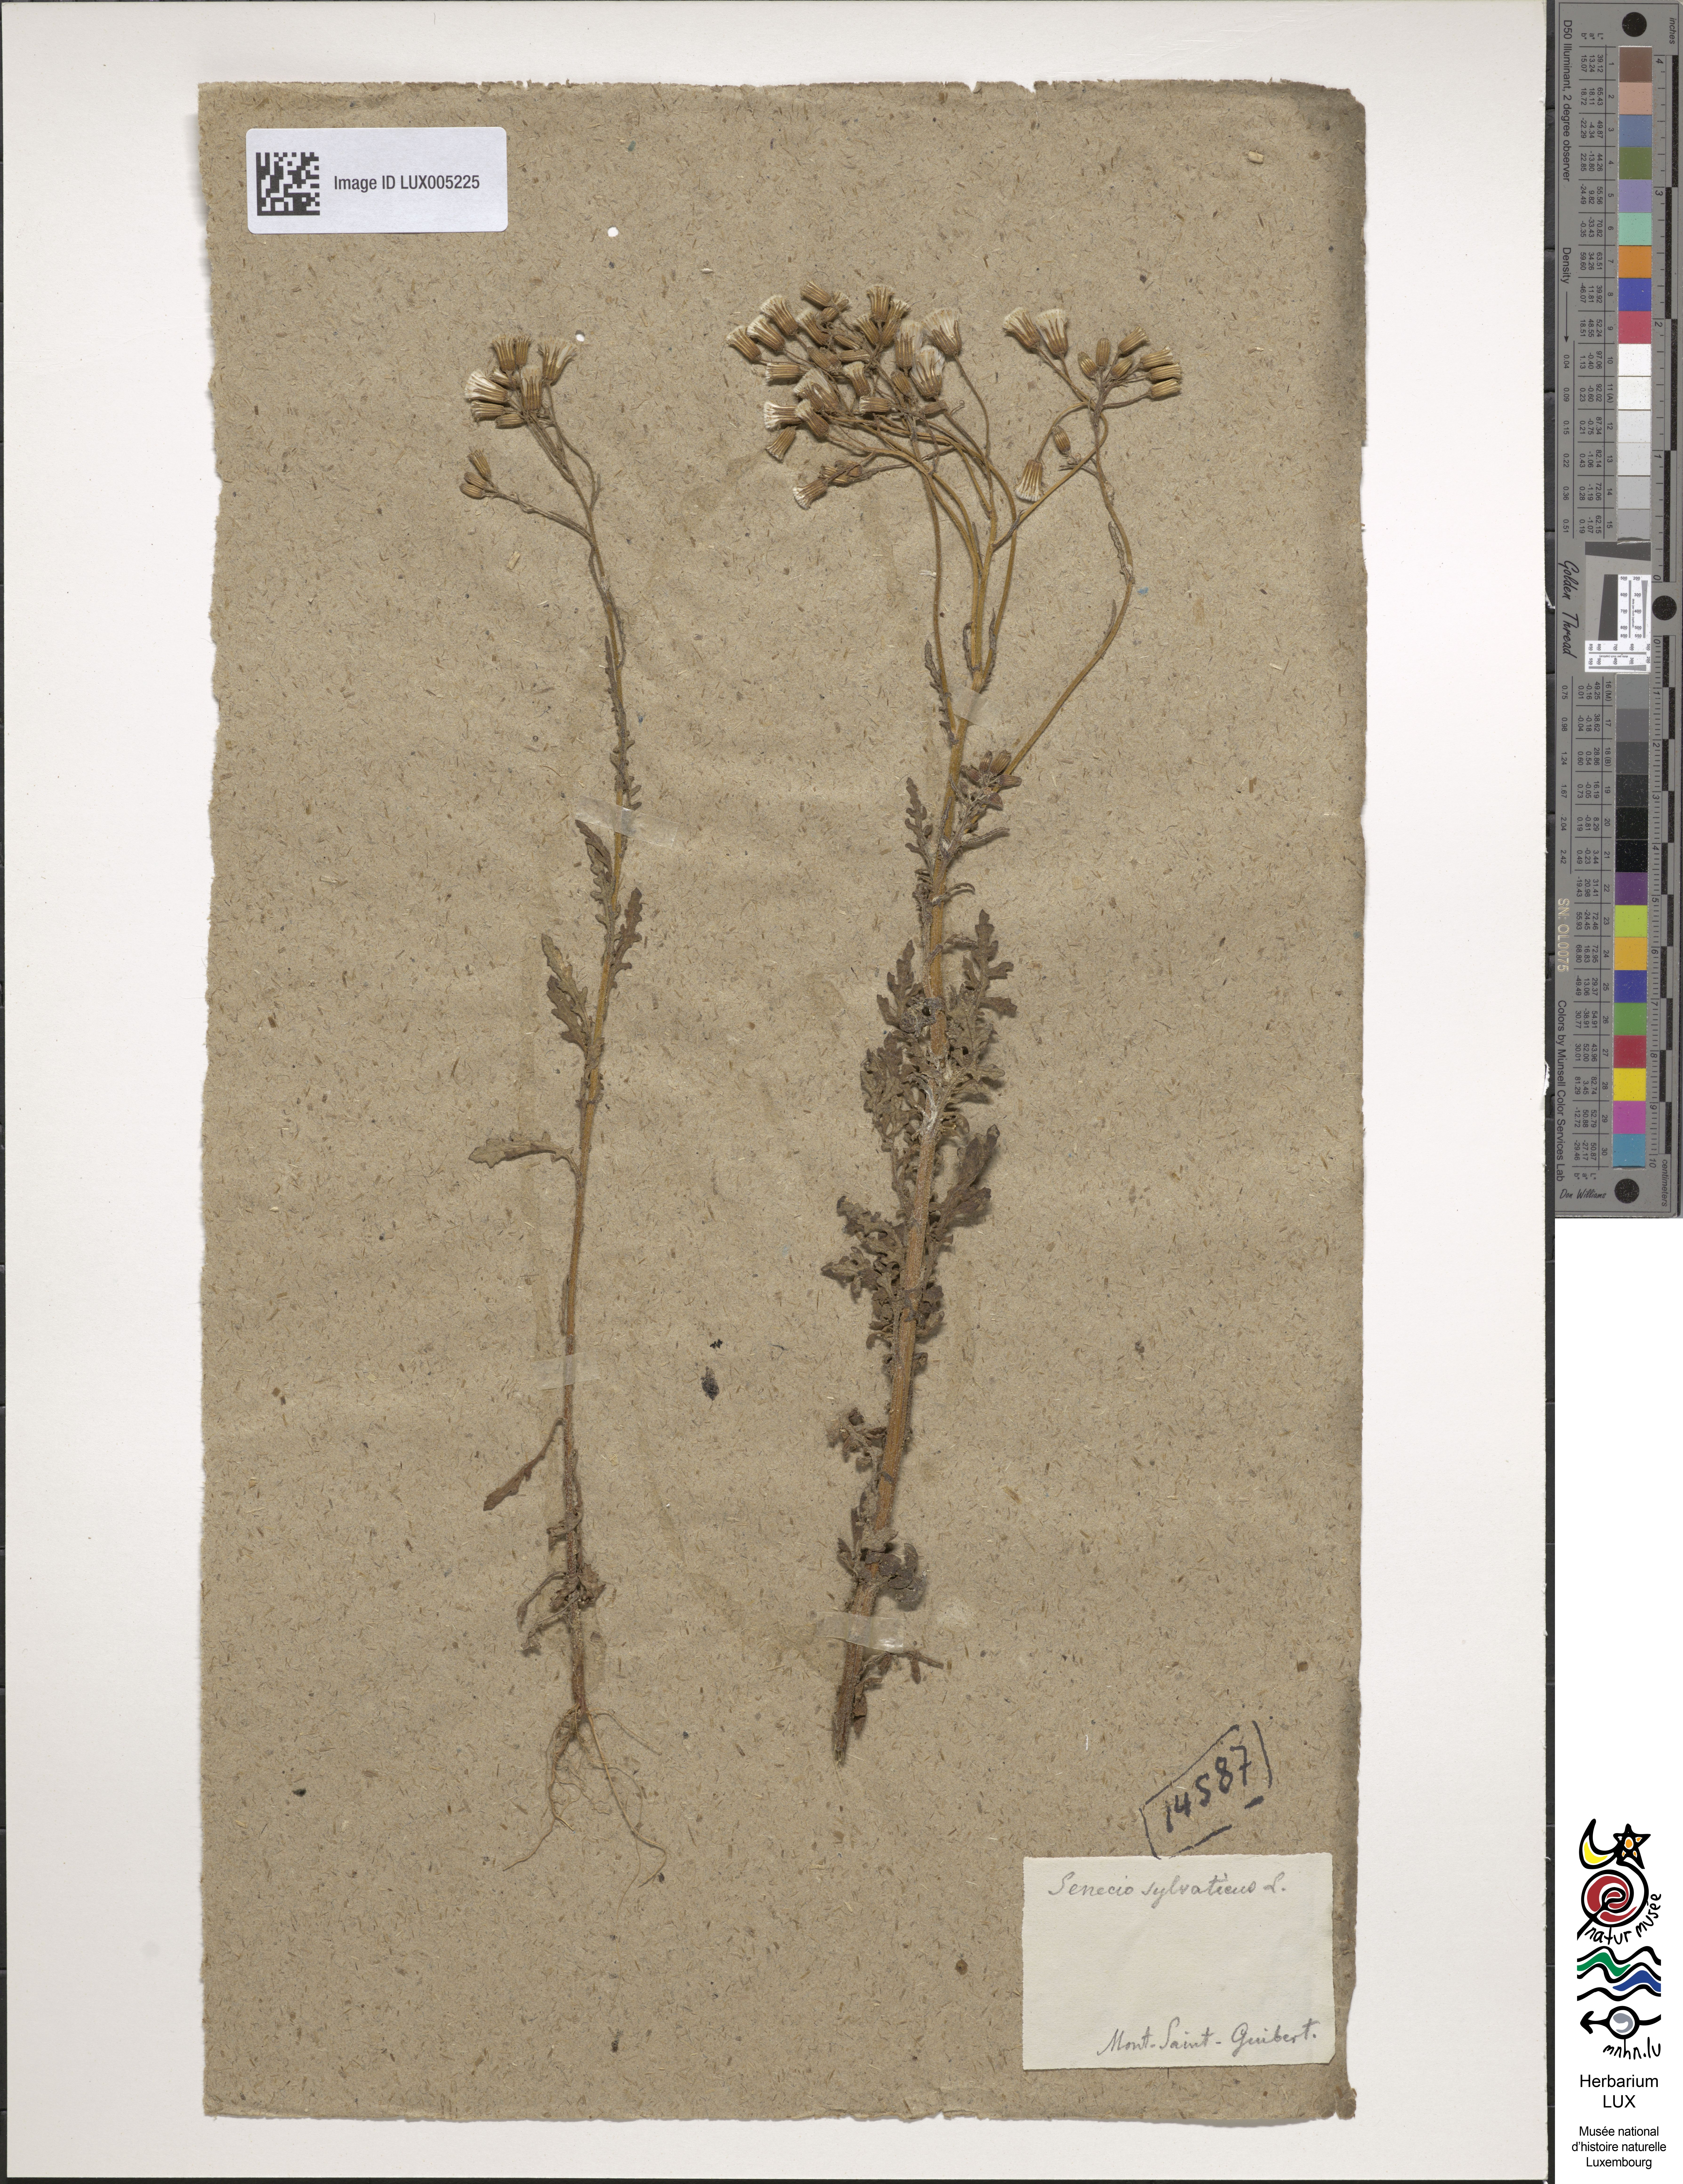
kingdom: Plantae
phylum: Tracheophyta
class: Magnoliopsida
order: Asterales
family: Asteraceae
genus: Senecio
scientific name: Senecio sylvaticus
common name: Woodland ragwort
